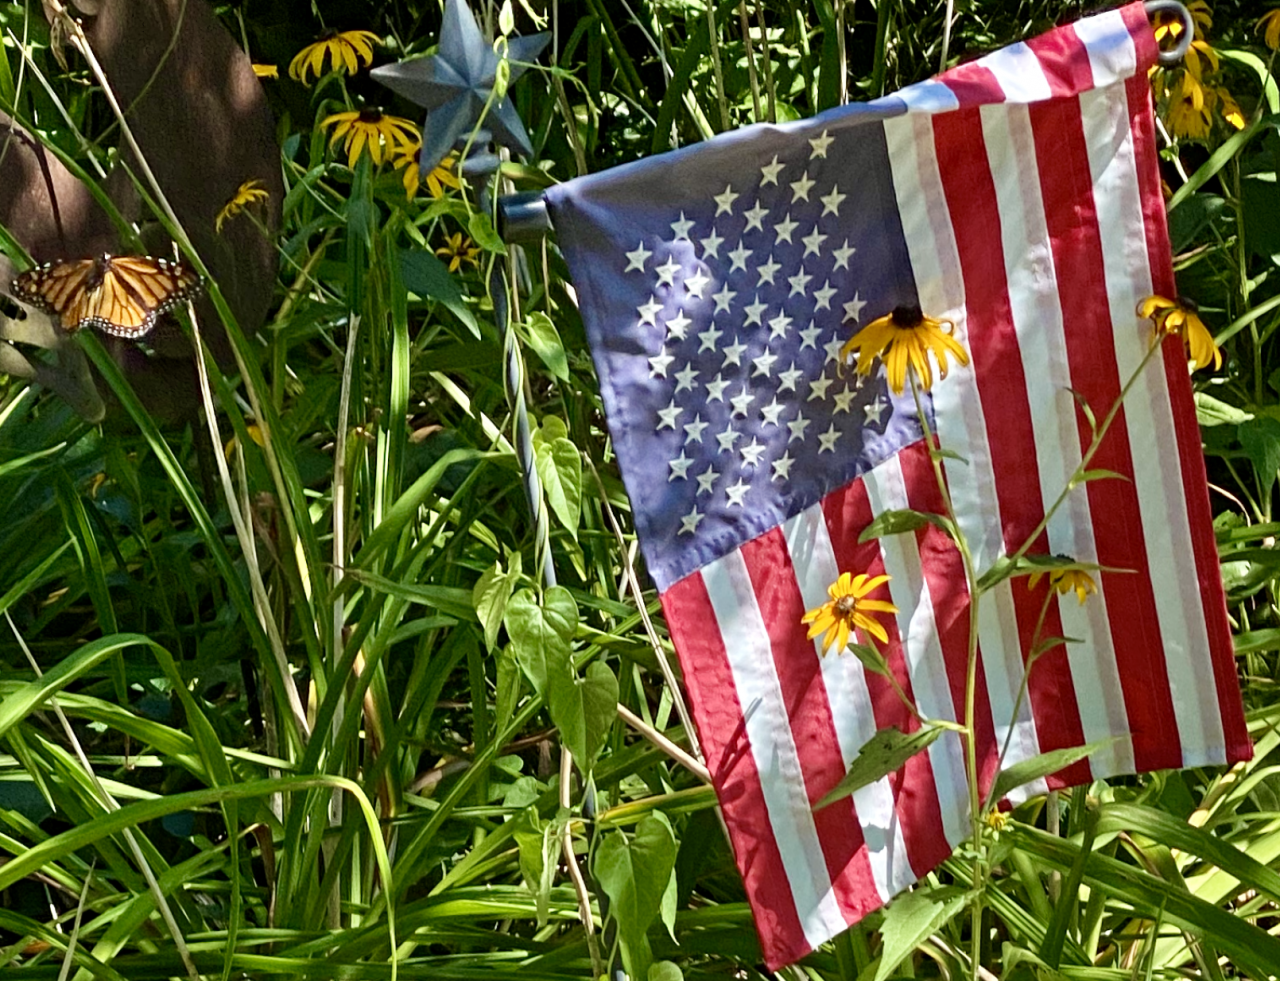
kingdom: Animalia
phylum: Arthropoda
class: Insecta
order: Lepidoptera
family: Nymphalidae
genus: Danaus
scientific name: Danaus plexippus
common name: Monarch
